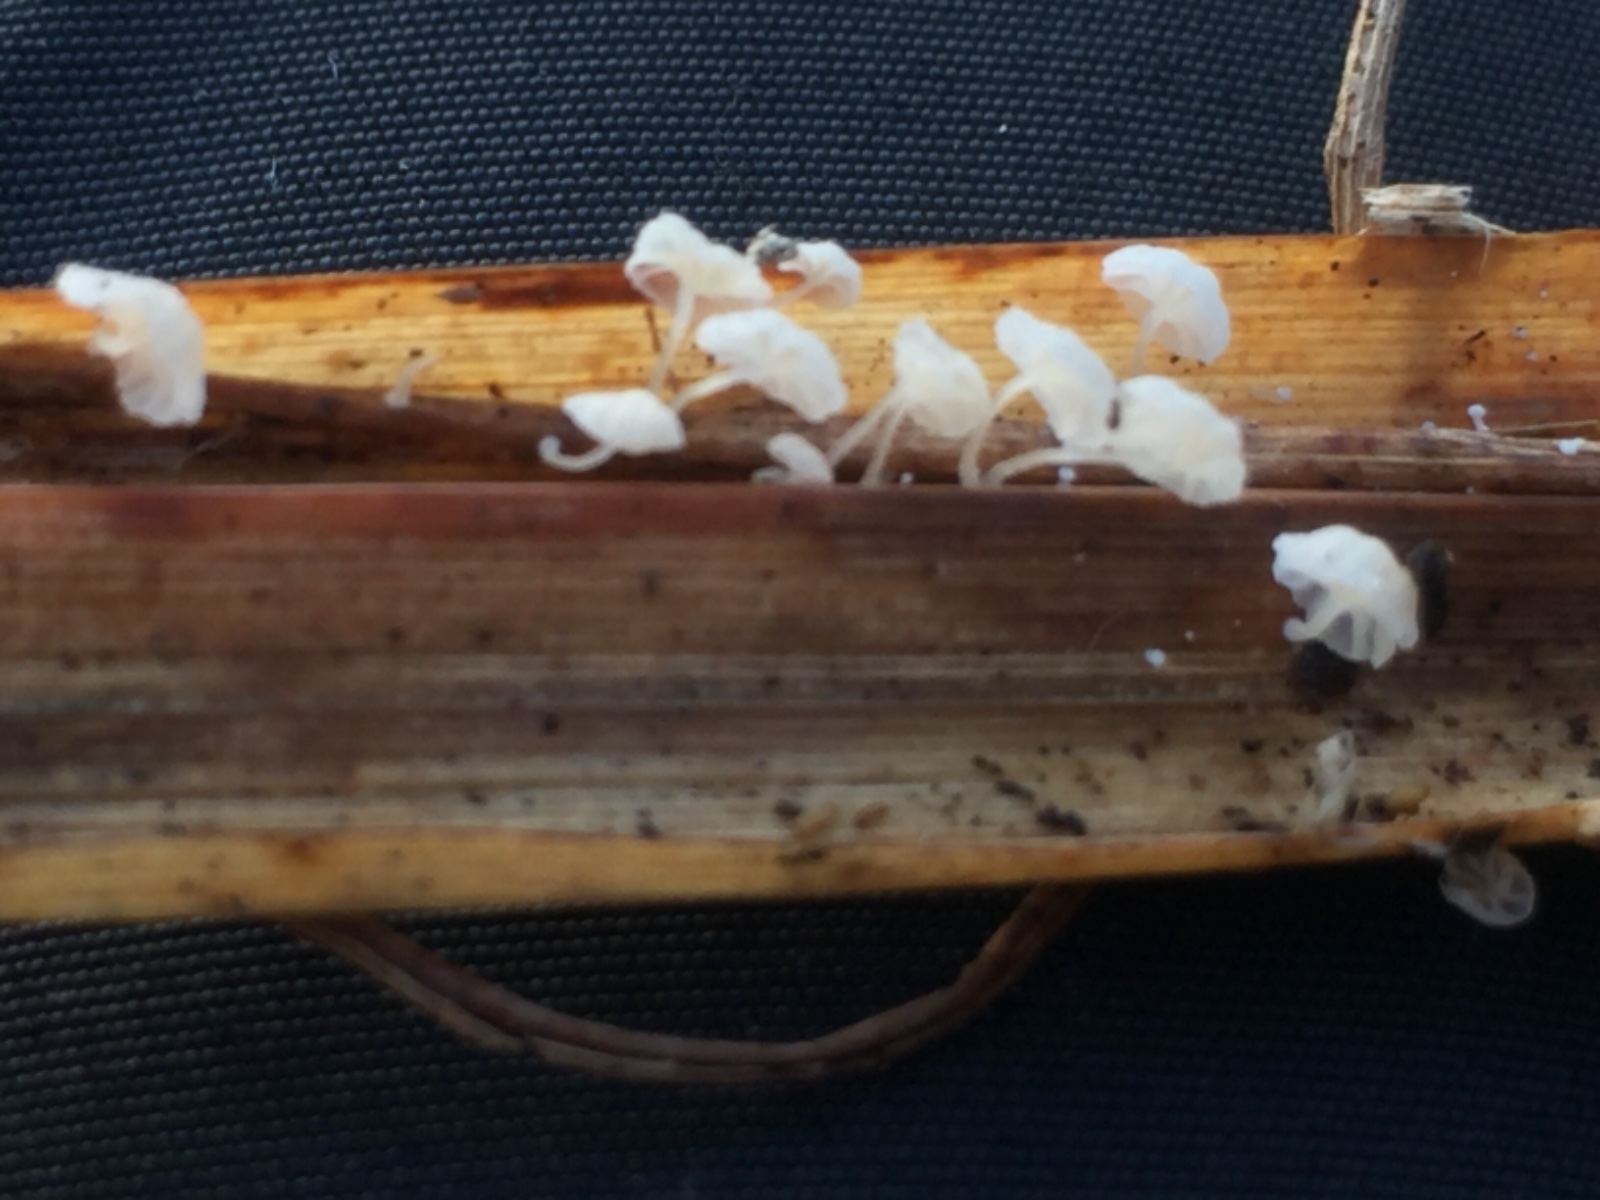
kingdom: Fungi
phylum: Basidiomycota
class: Agaricomycetes
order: Agaricales
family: Mycenaceae
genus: Resinomycena
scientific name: Resinomycena saccharifera
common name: sukkerhat
